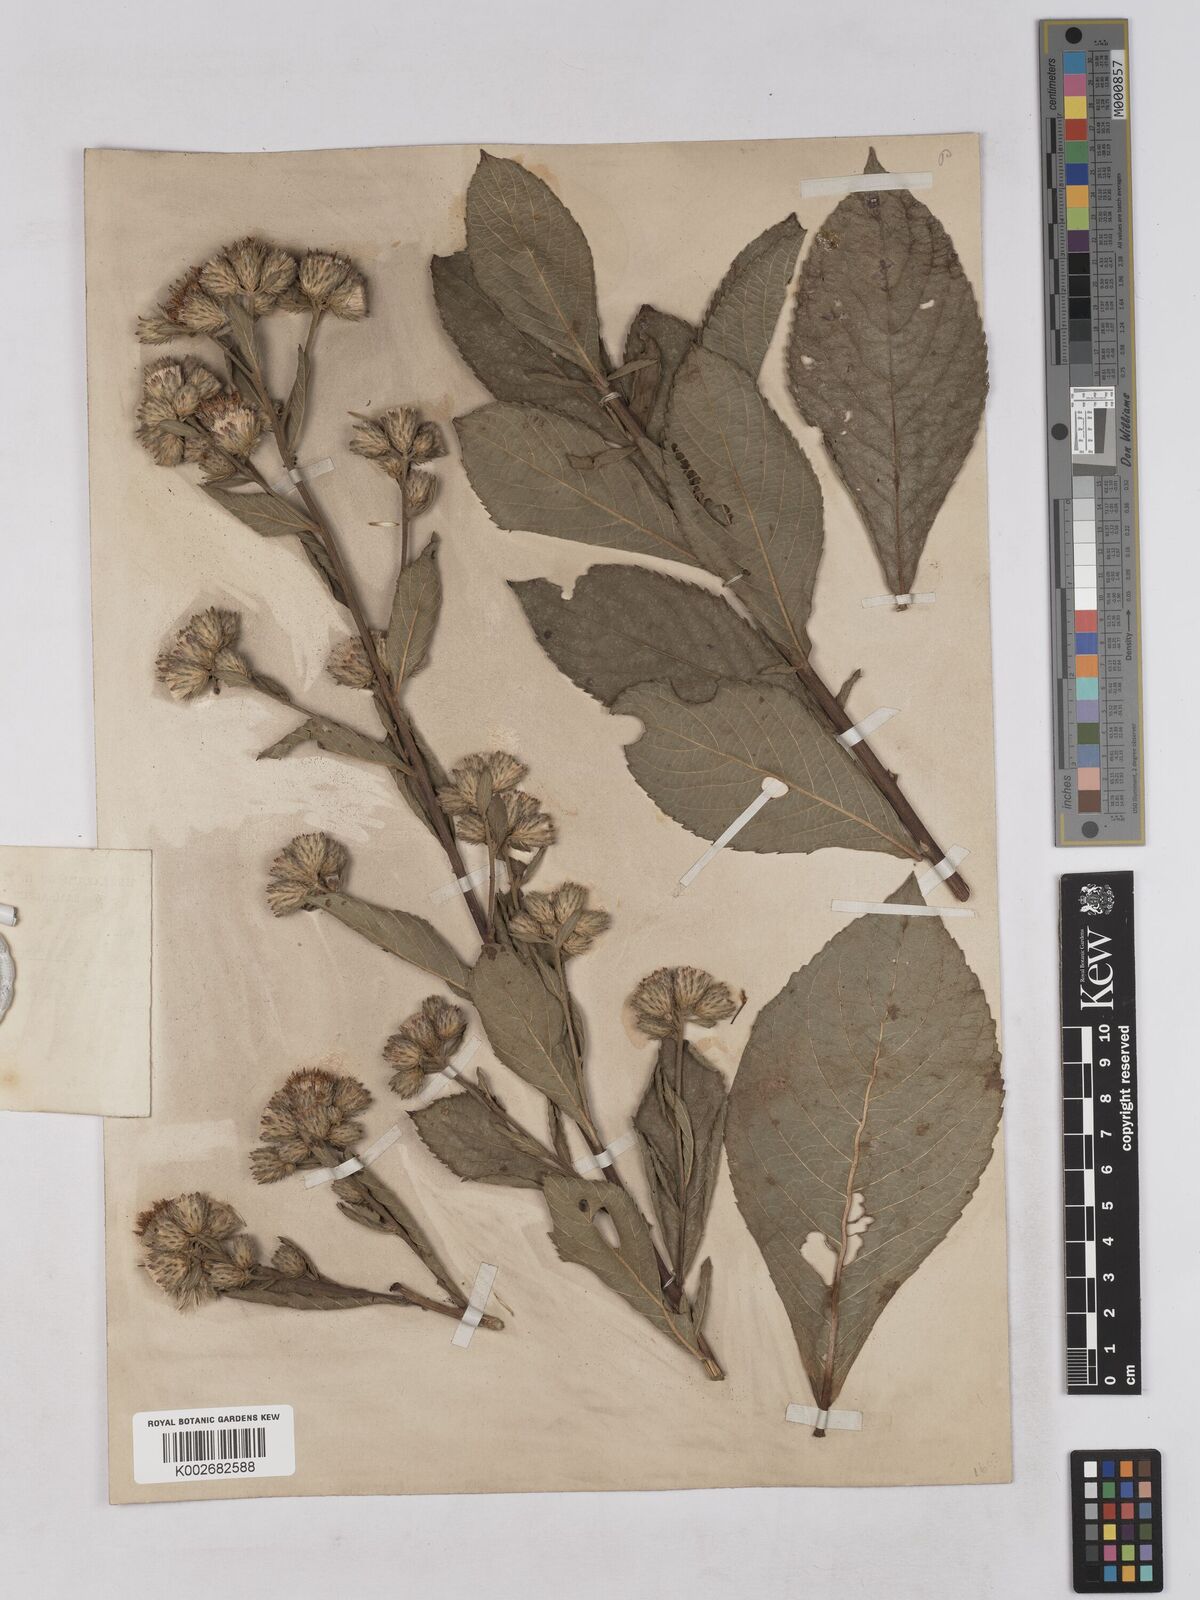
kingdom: Plantae
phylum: Tracheophyta
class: Magnoliopsida
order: Asterales
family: Asteraceae
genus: Acilepis
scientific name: Acilepis aspera
